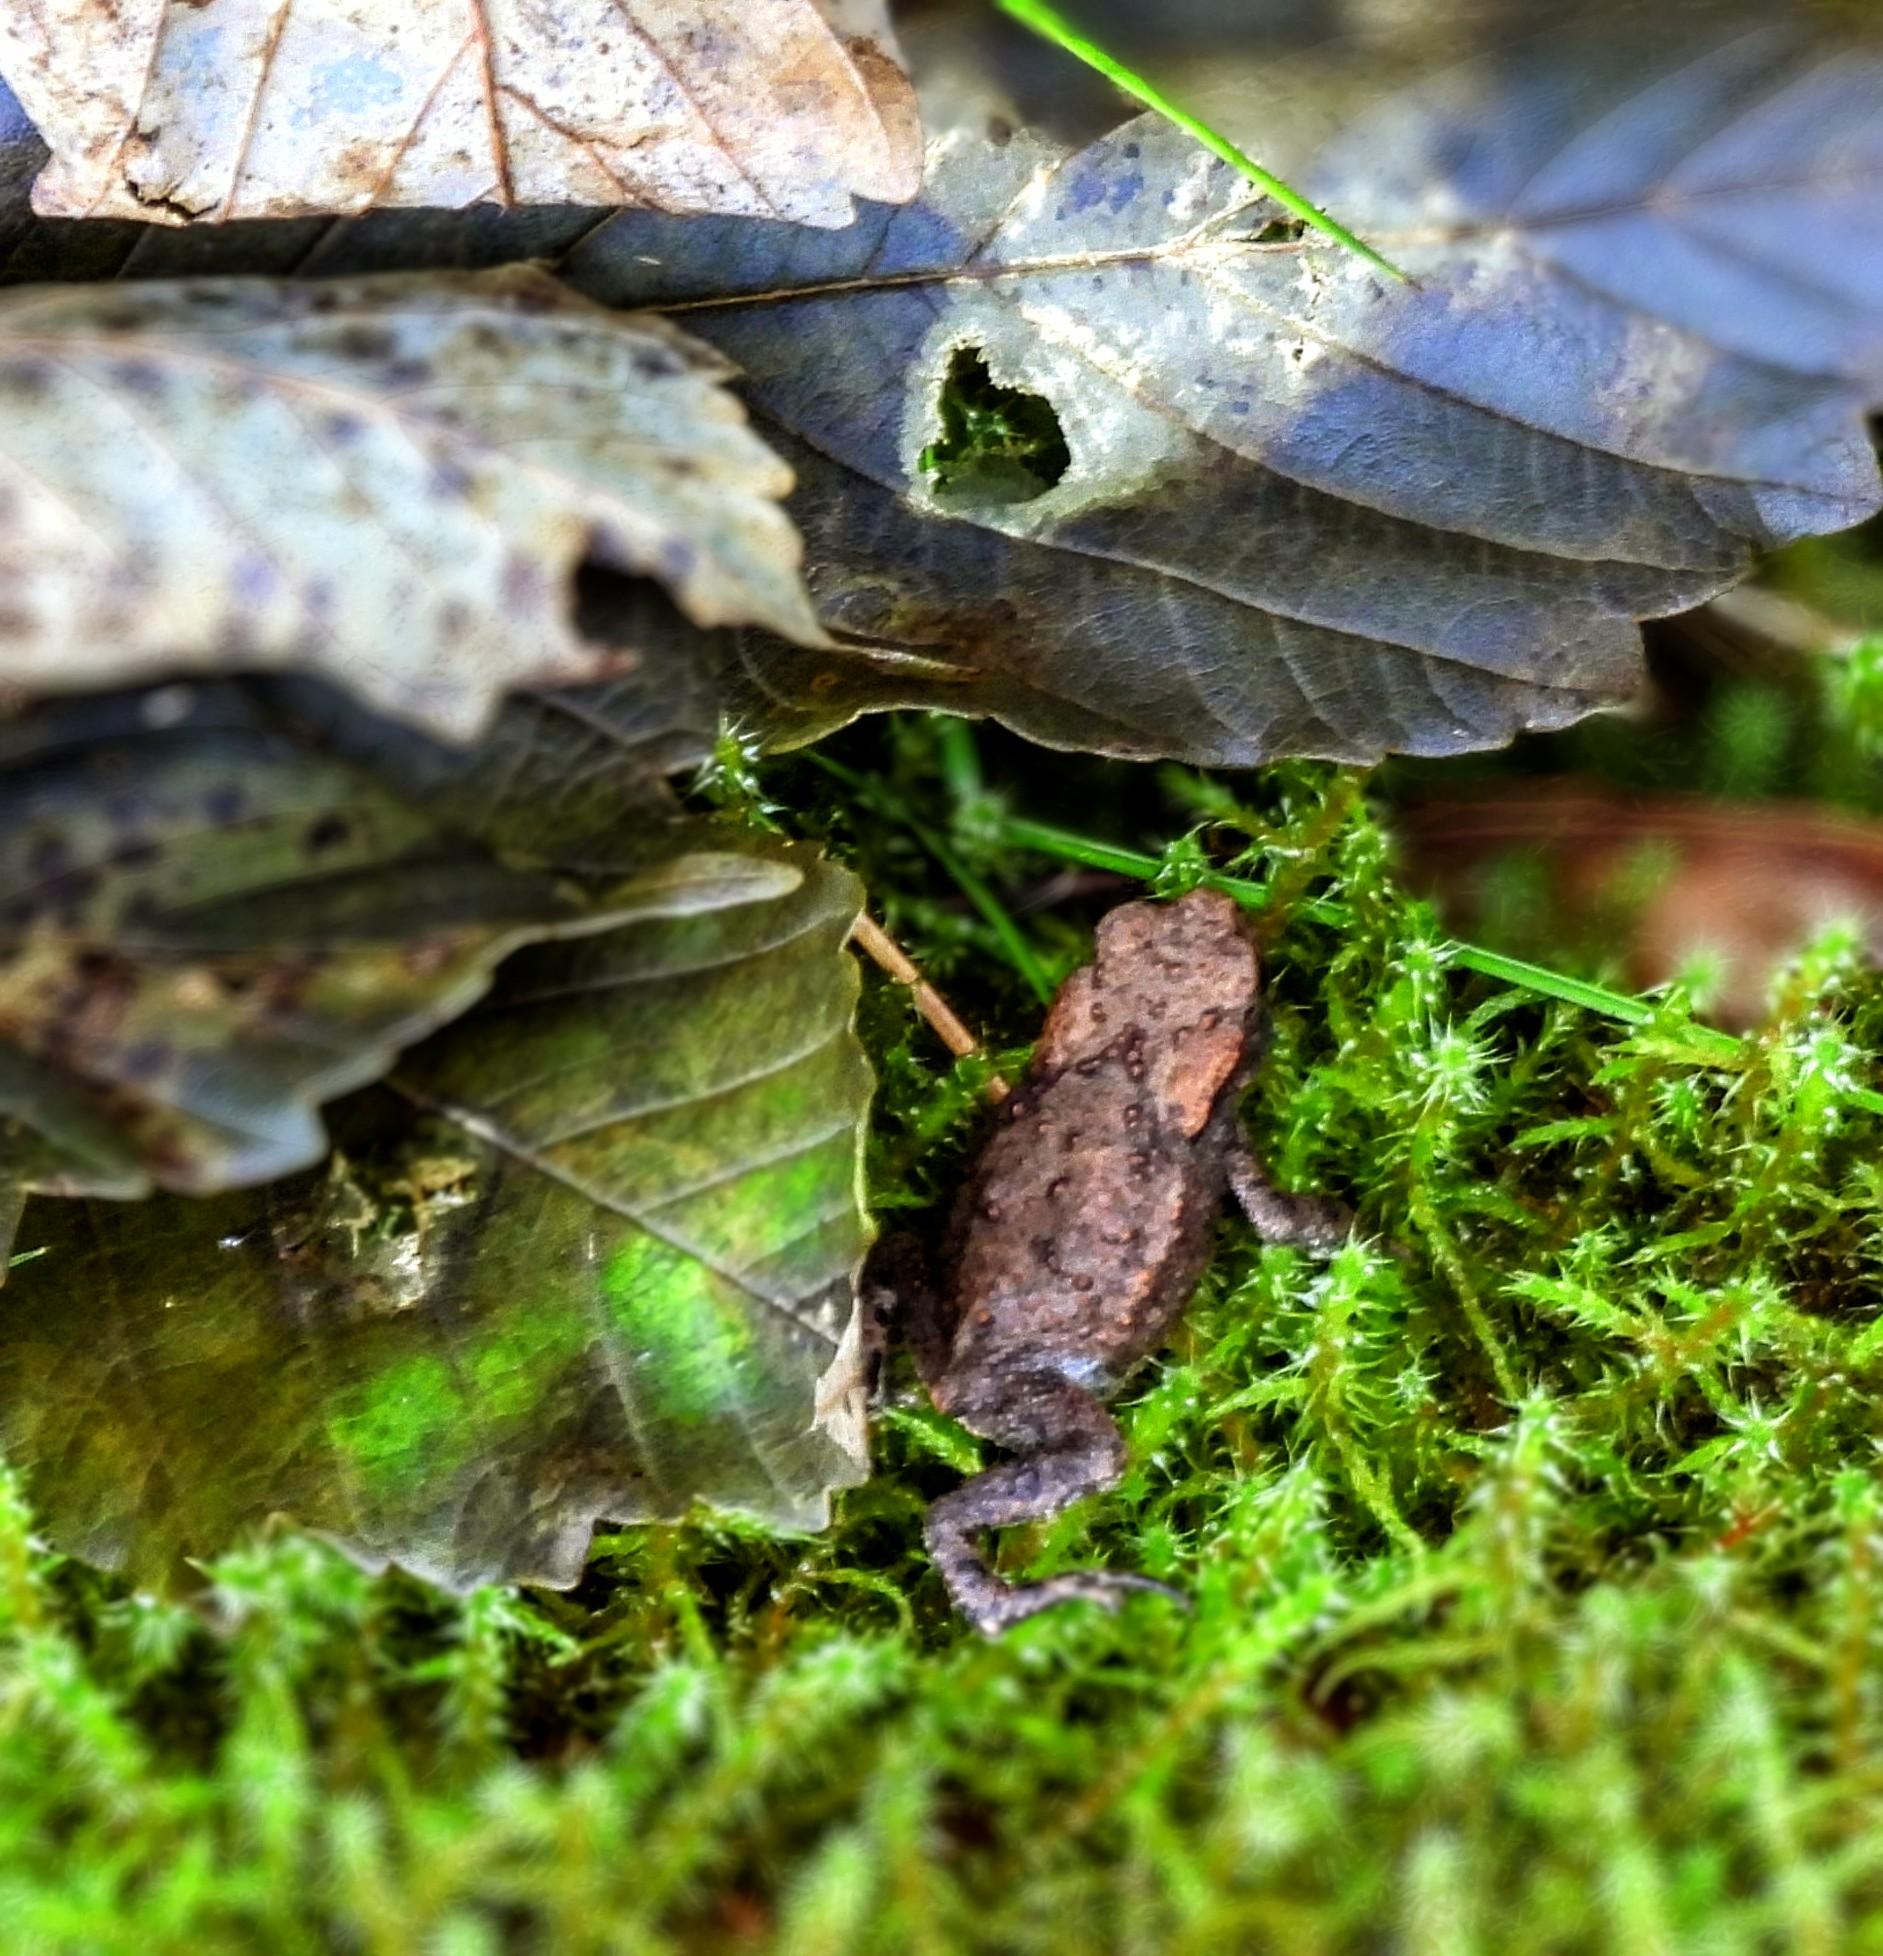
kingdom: Animalia
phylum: Chordata
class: Amphibia
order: Anura
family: Bufonidae
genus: Bufo
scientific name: Bufo bufo
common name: Skrubtudse
